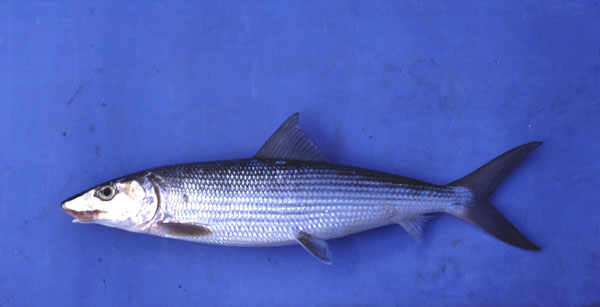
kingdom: Animalia
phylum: Chordata
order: Albuliformes
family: Albulidae
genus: Albula
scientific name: Albula oligolepis
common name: Smallscale bonefish
